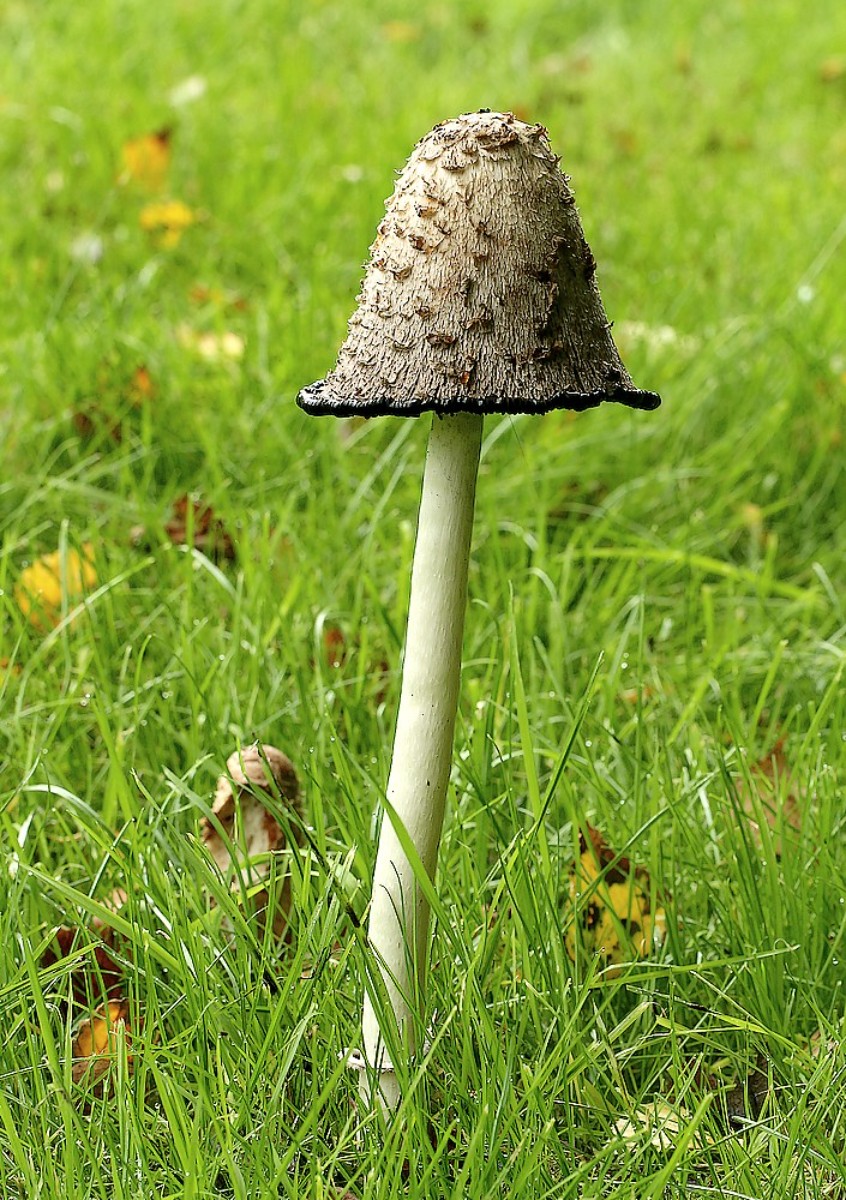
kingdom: Fungi
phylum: Basidiomycota
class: Agaricomycetes
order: Agaricales
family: Agaricaceae
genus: Coprinus
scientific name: Coprinus comatus
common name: stor parykhat
